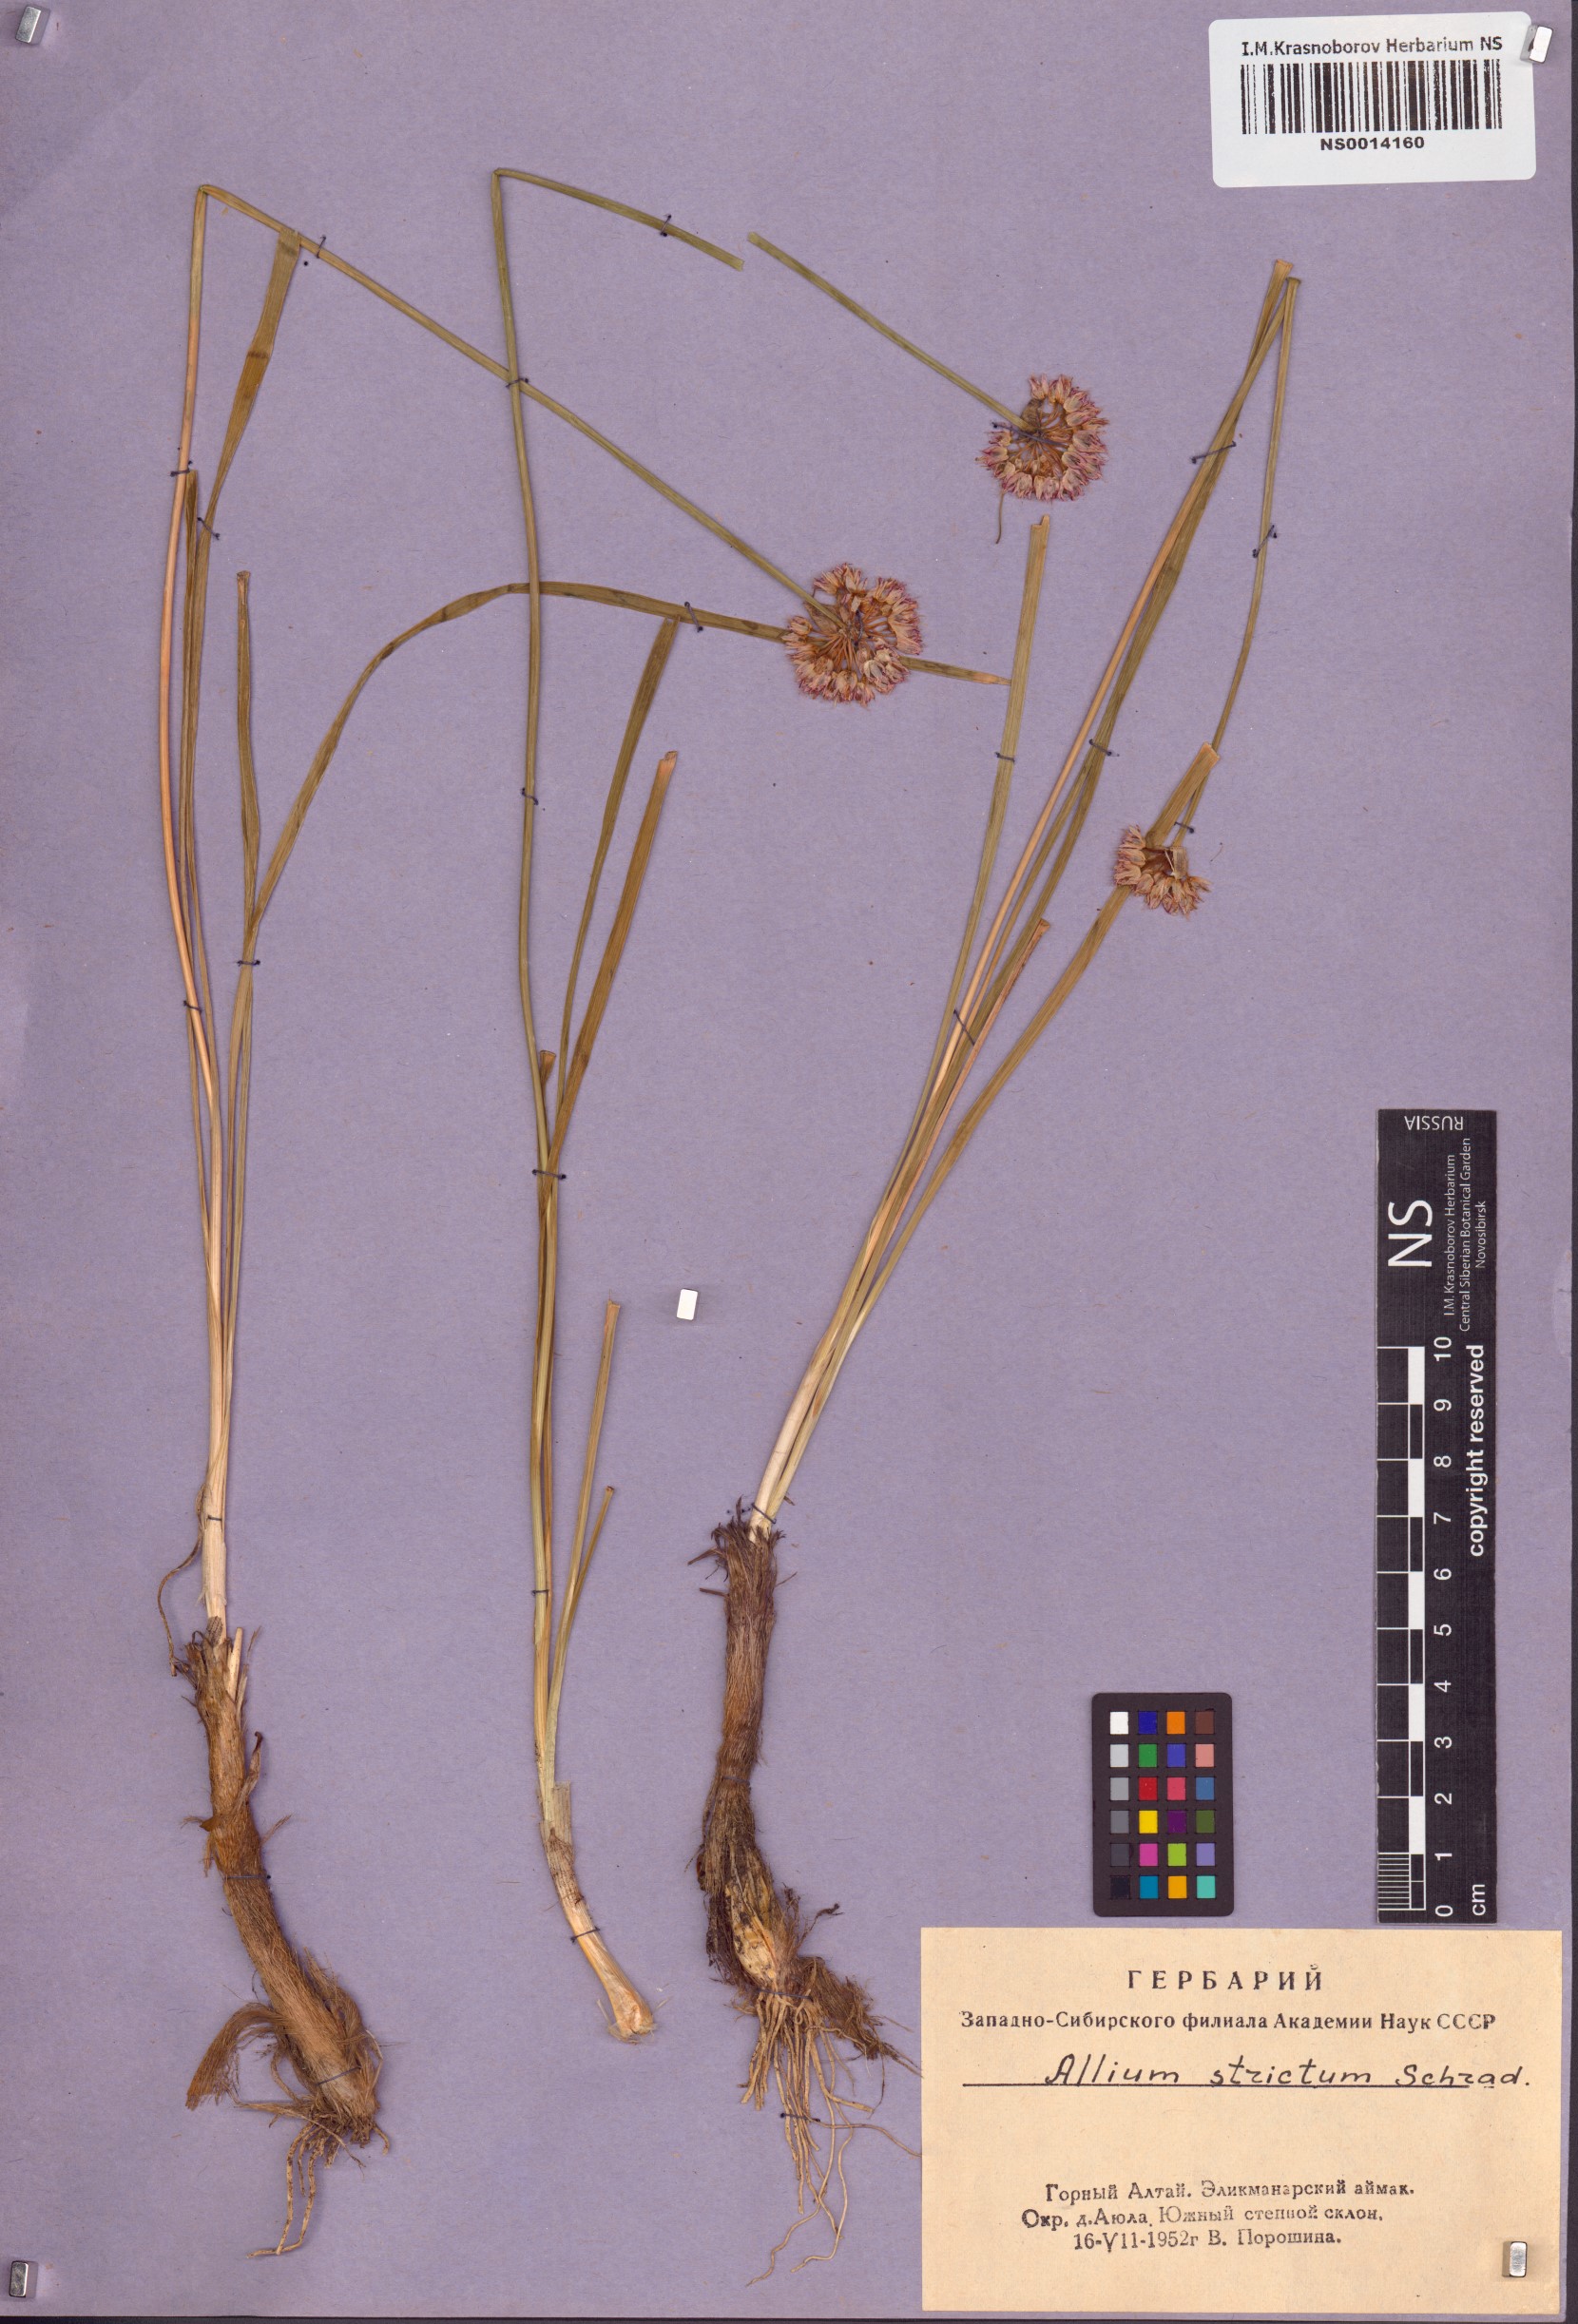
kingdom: Plantae
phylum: Tracheophyta
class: Liliopsida
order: Asparagales
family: Amaryllidaceae
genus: Allium
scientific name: Allium strictum
